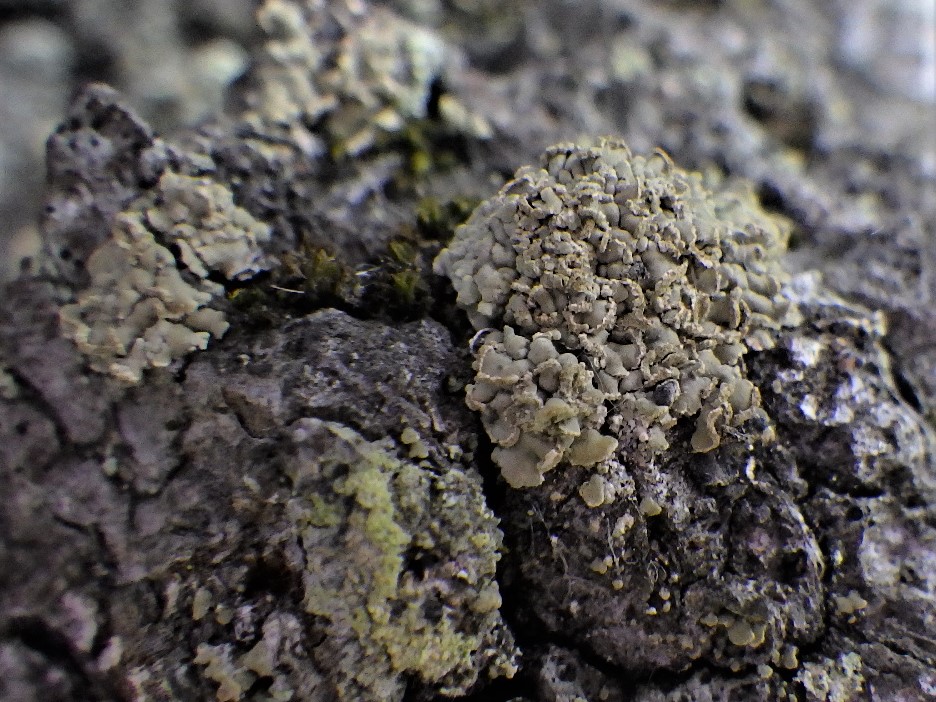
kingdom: Fungi
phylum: Ascomycota
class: Lecanoromycetes
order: Umbilicariales
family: Ophioparmaceae
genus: Hypocenomyce
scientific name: Hypocenomyce scalaris
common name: småskællet muslinglav
